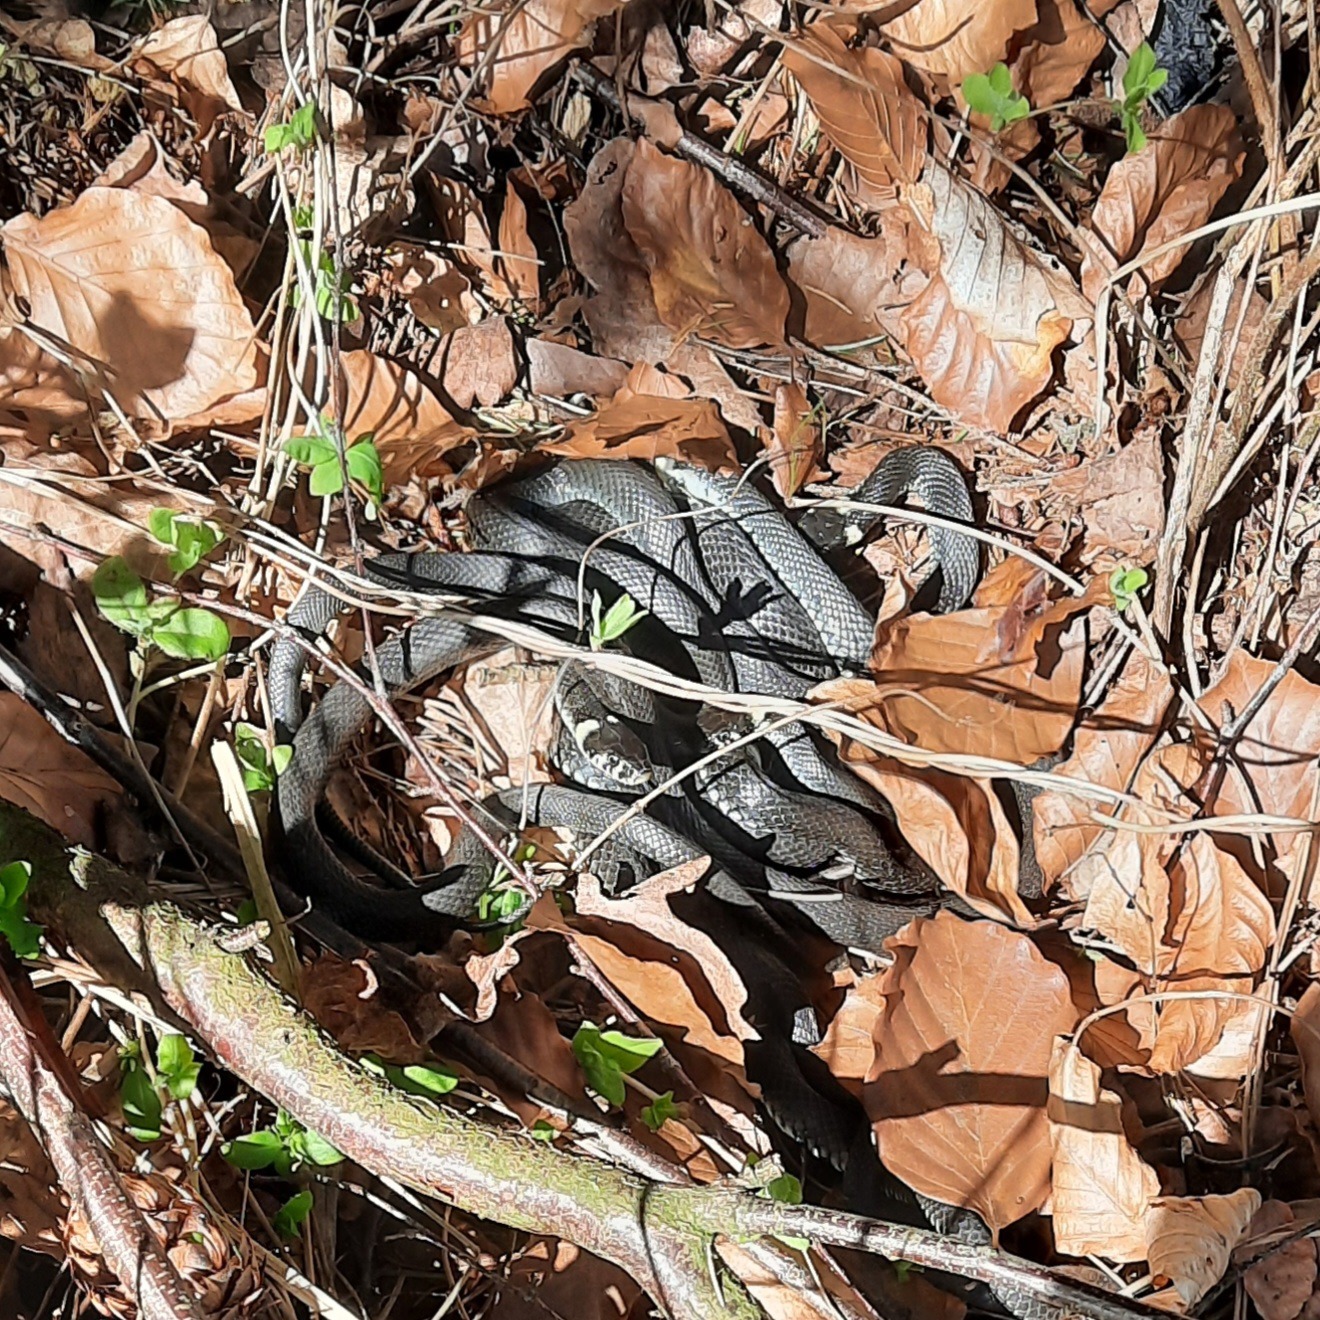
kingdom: Animalia
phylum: Chordata
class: Squamata
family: Colubridae
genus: Natrix
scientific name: Natrix natrix
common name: Snog
